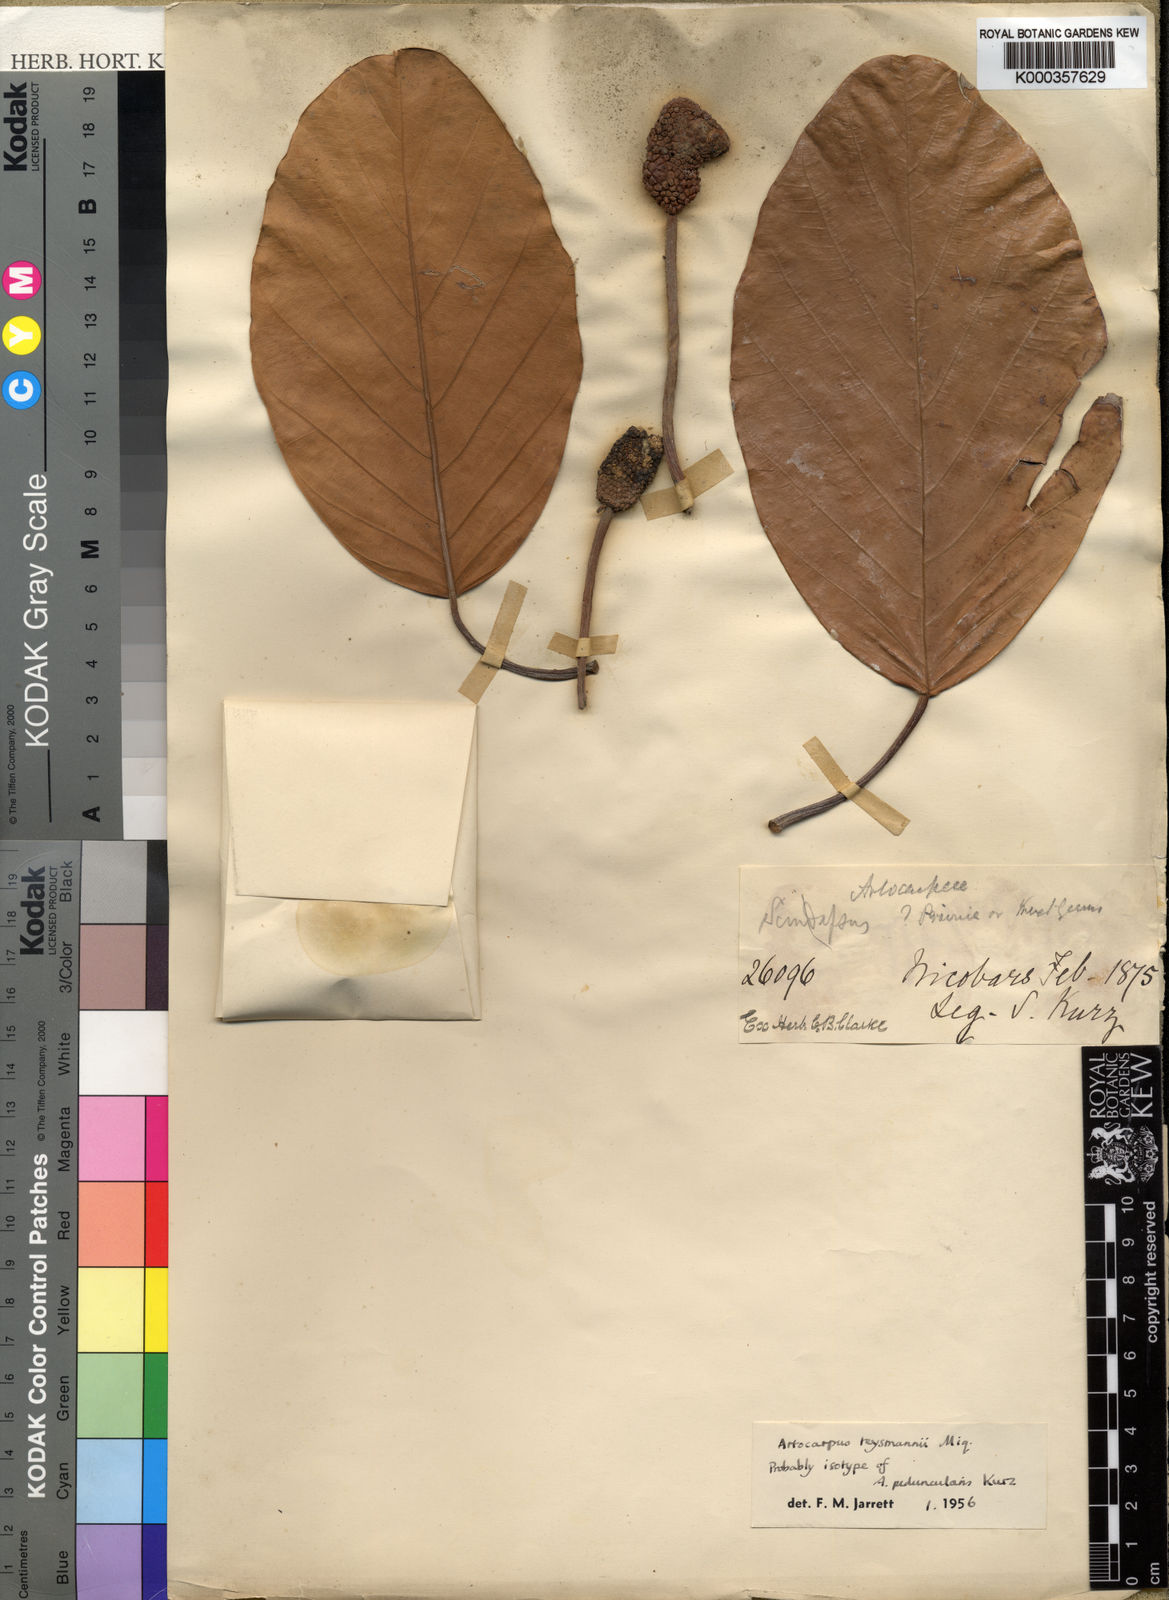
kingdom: Plantae
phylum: Tracheophyta
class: Magnoliopsida
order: Rosales
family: Moraceae
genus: Artocarpus
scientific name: Artocarpus teysmannii
